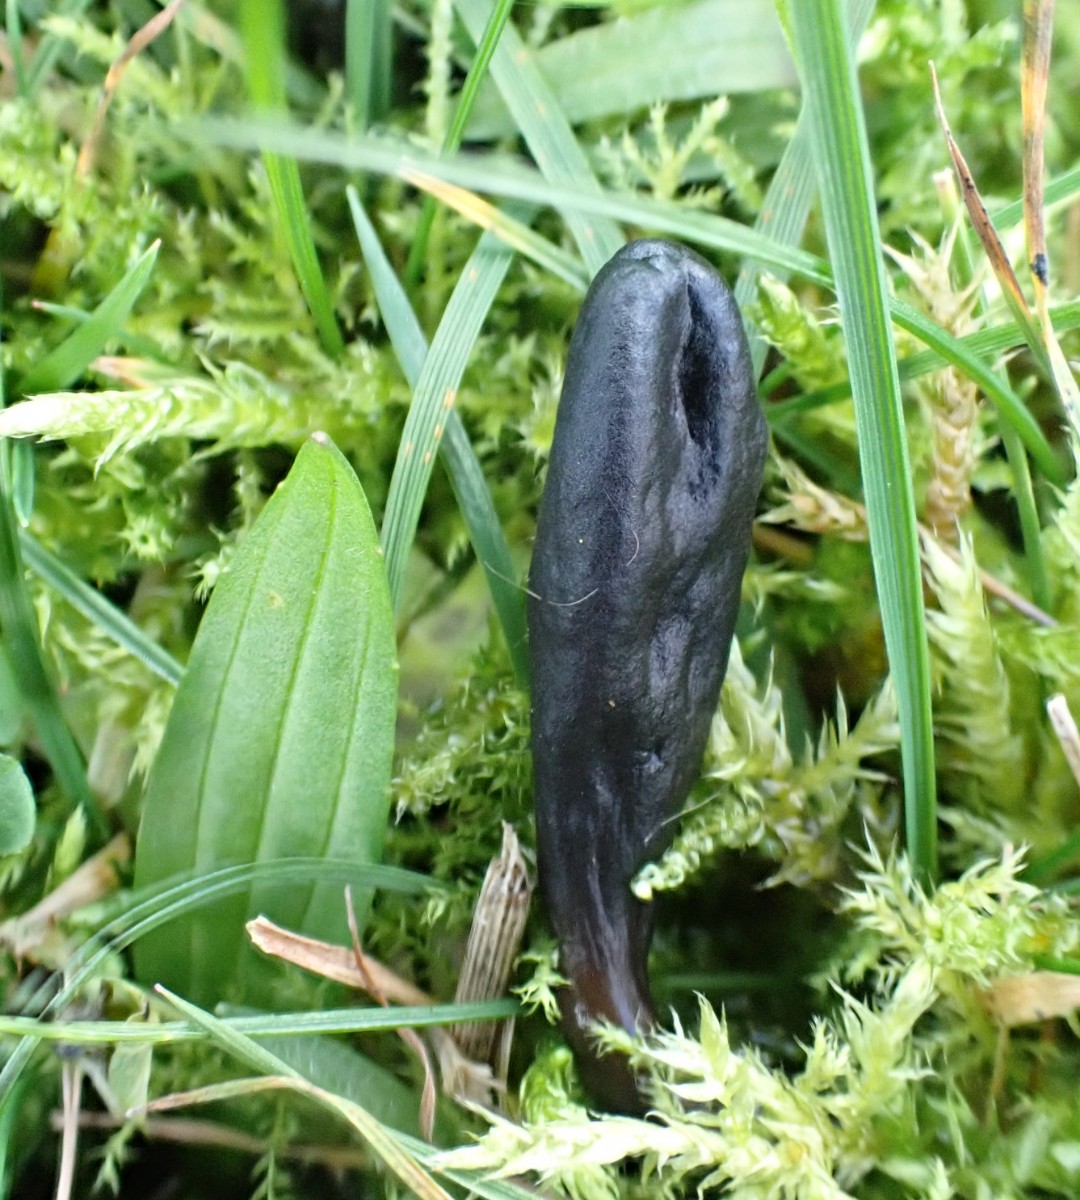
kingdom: Fungi
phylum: Ascomycota
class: Geoglossomycetes
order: Geoglossales
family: Geoglossaceae
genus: Glutinoglossum
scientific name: Glutinoglossum glutinosum
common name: slimet jordtunge
